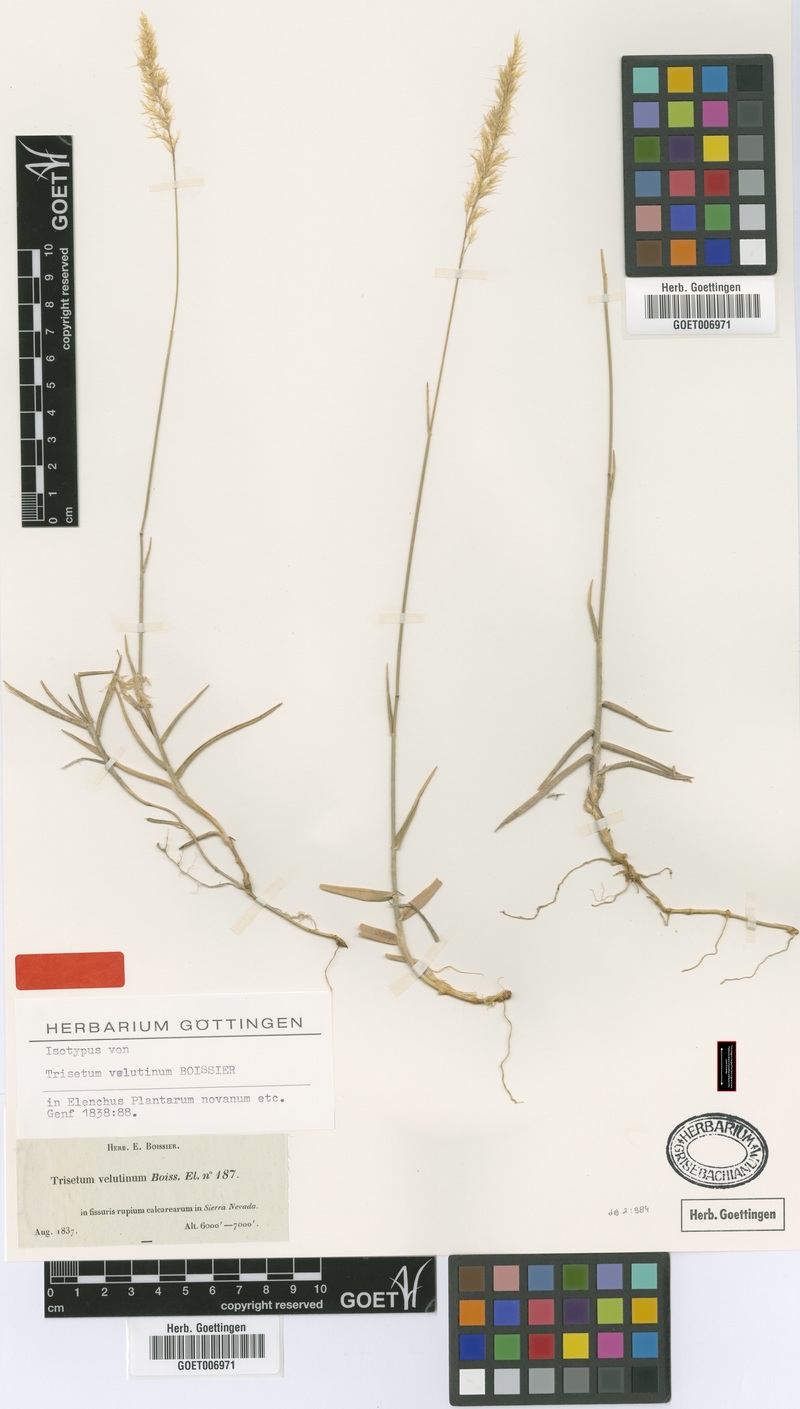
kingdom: Plantae
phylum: Tracheophyta
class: Liliopsida
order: Poales
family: Poaceae
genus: Trisetum
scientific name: Trisetum velutinum
